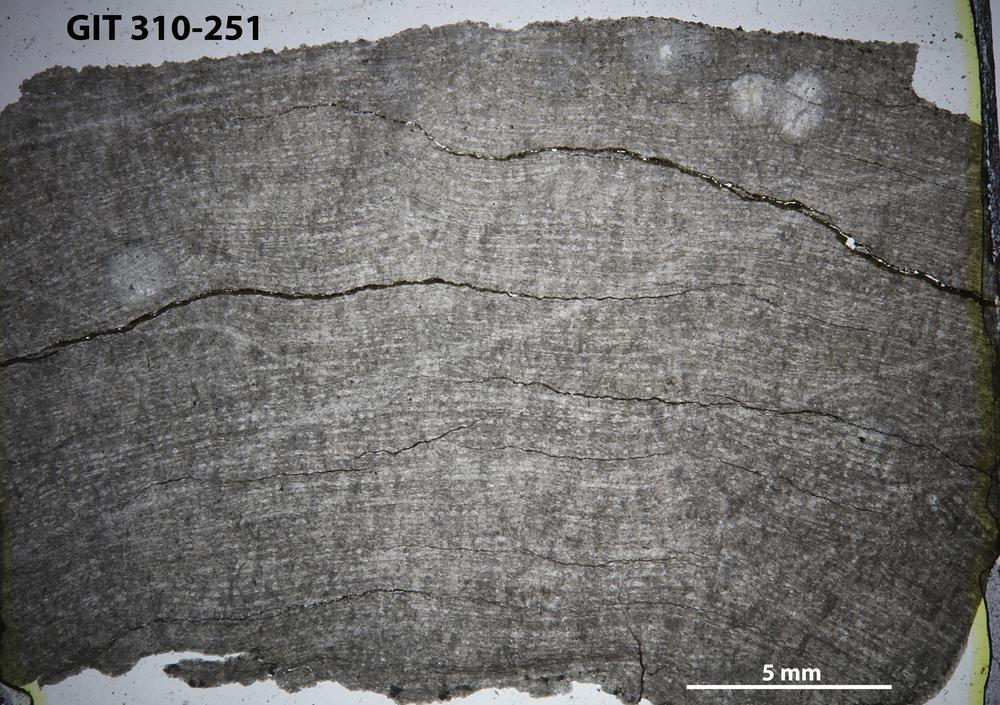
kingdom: Animalia
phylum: Porifera
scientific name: Porifera
